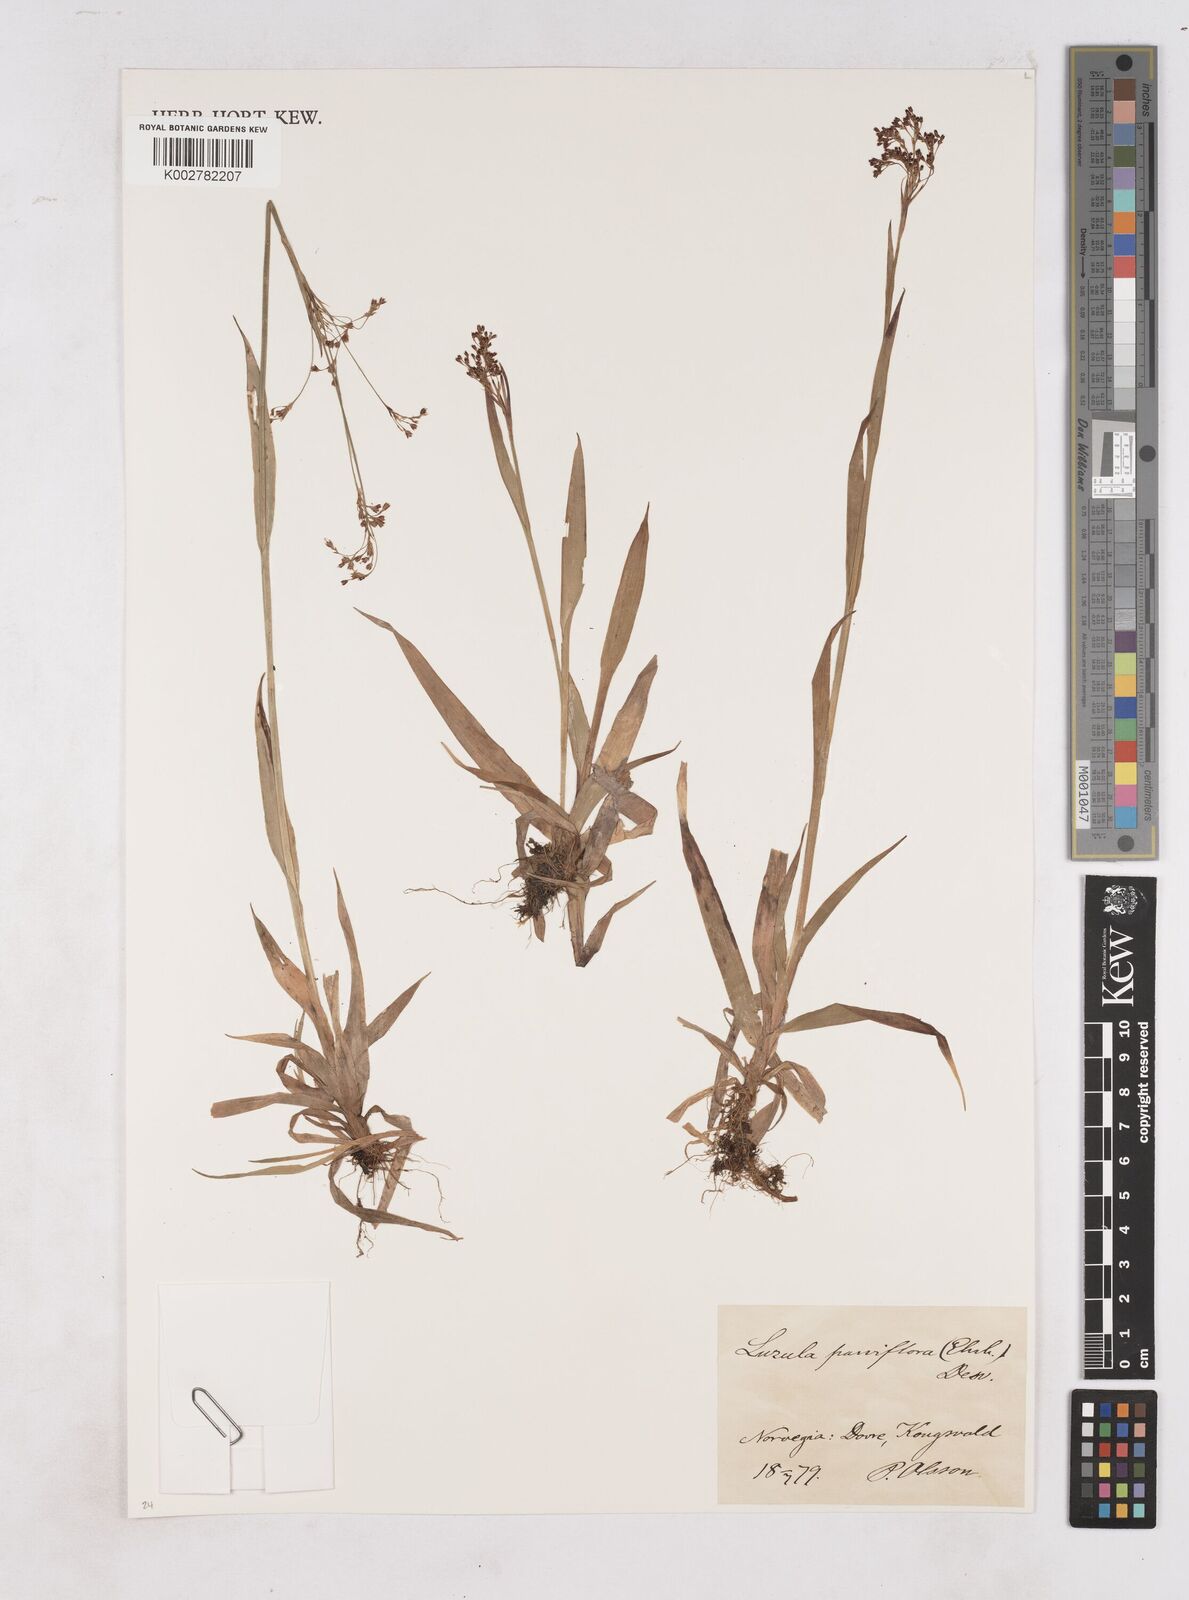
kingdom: Plantae
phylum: Tracheophyta
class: Liliopsida
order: Poales
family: Juncaceae
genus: Luzula
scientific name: Luzula parviflora
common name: Millet woodrush
